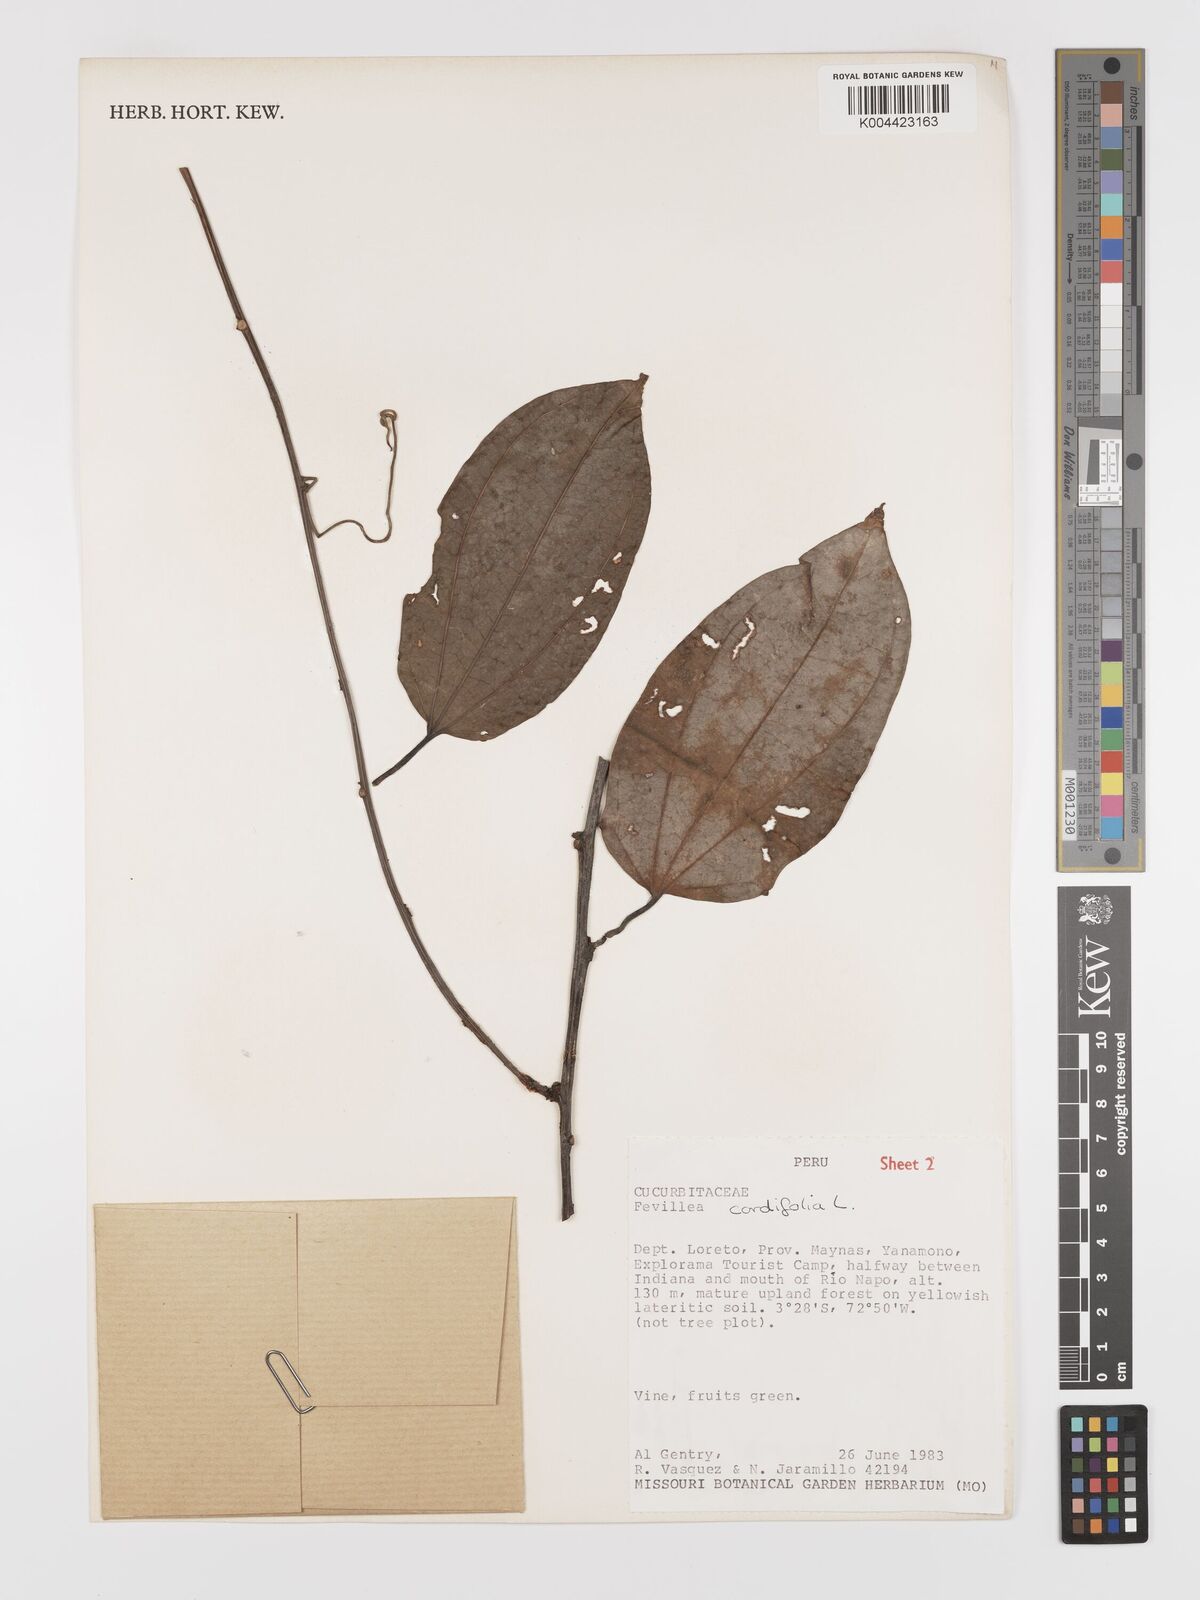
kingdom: Plantae
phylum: Tracheophyta
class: Magnoliopsida
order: Cucurbitales
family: Cucurbitaceae
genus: Fevillea
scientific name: Fevillea
